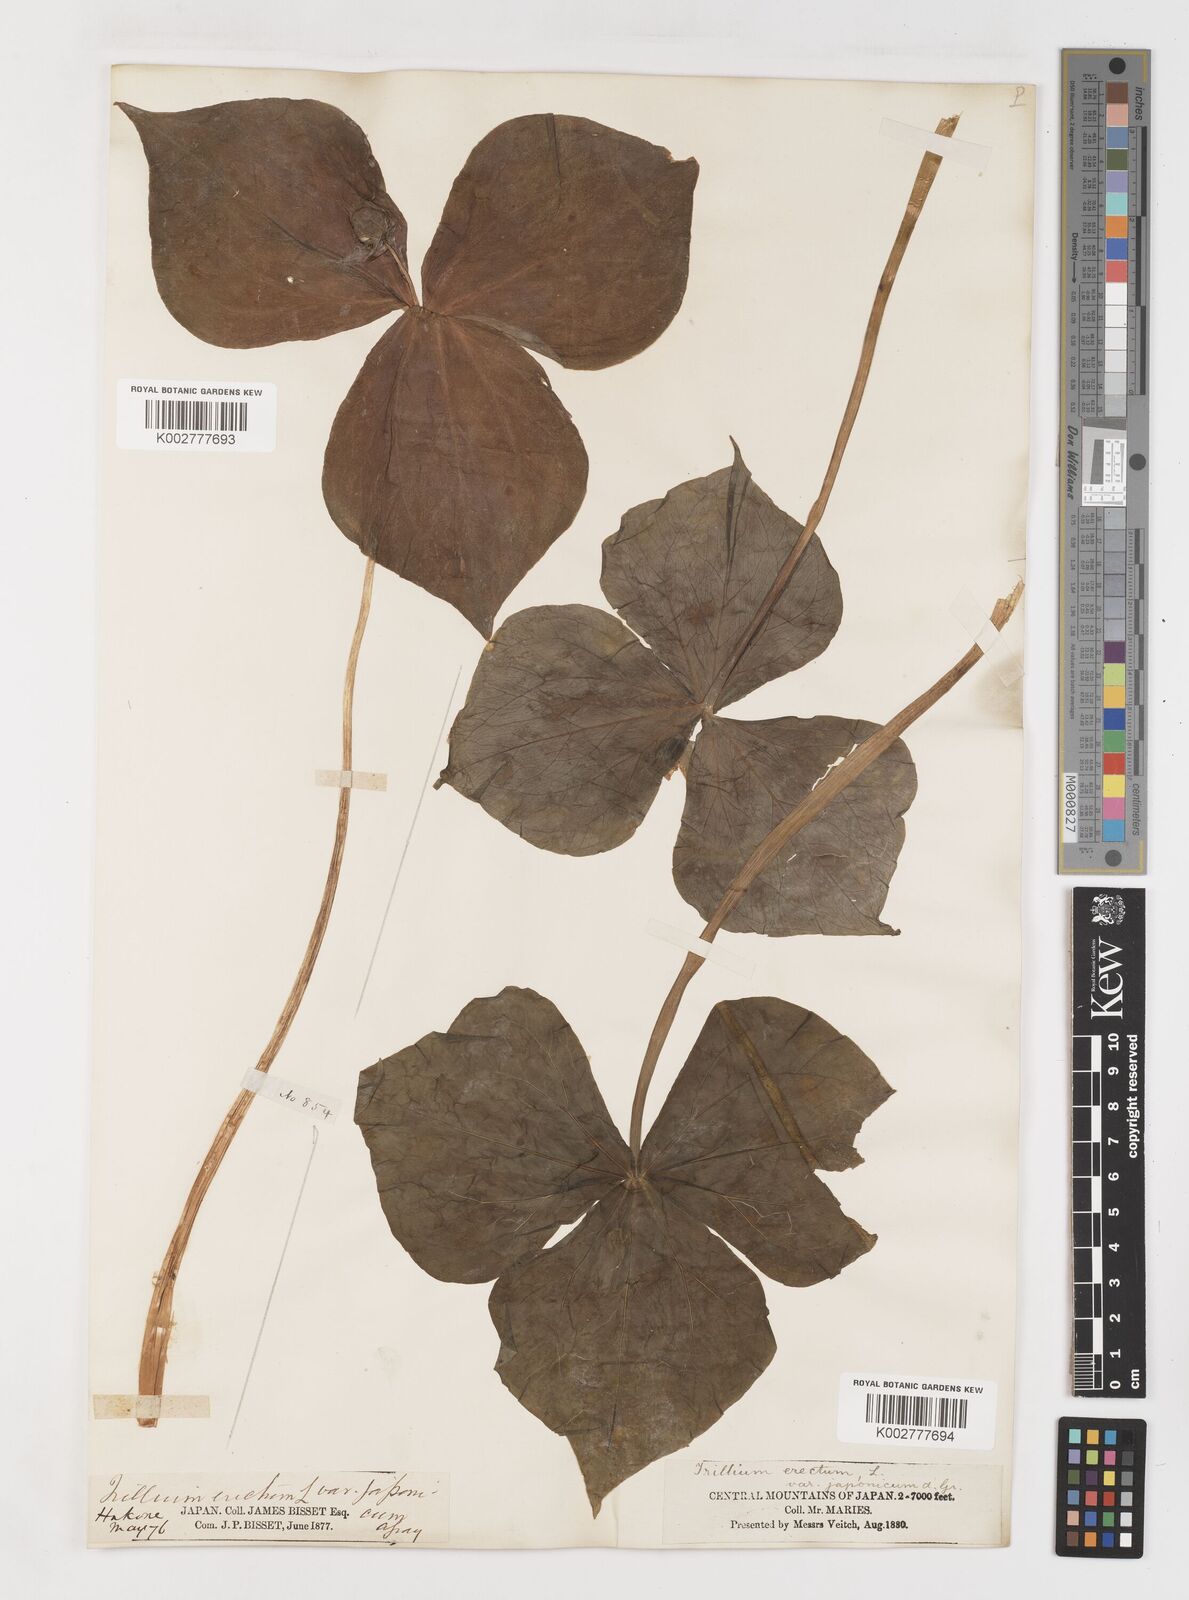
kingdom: Plantae
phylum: Tracheophyta
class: Liliopsida
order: Liliales
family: Melanthiaceae
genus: Trillium
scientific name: Trillium tschonoskii
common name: A pearl on head
